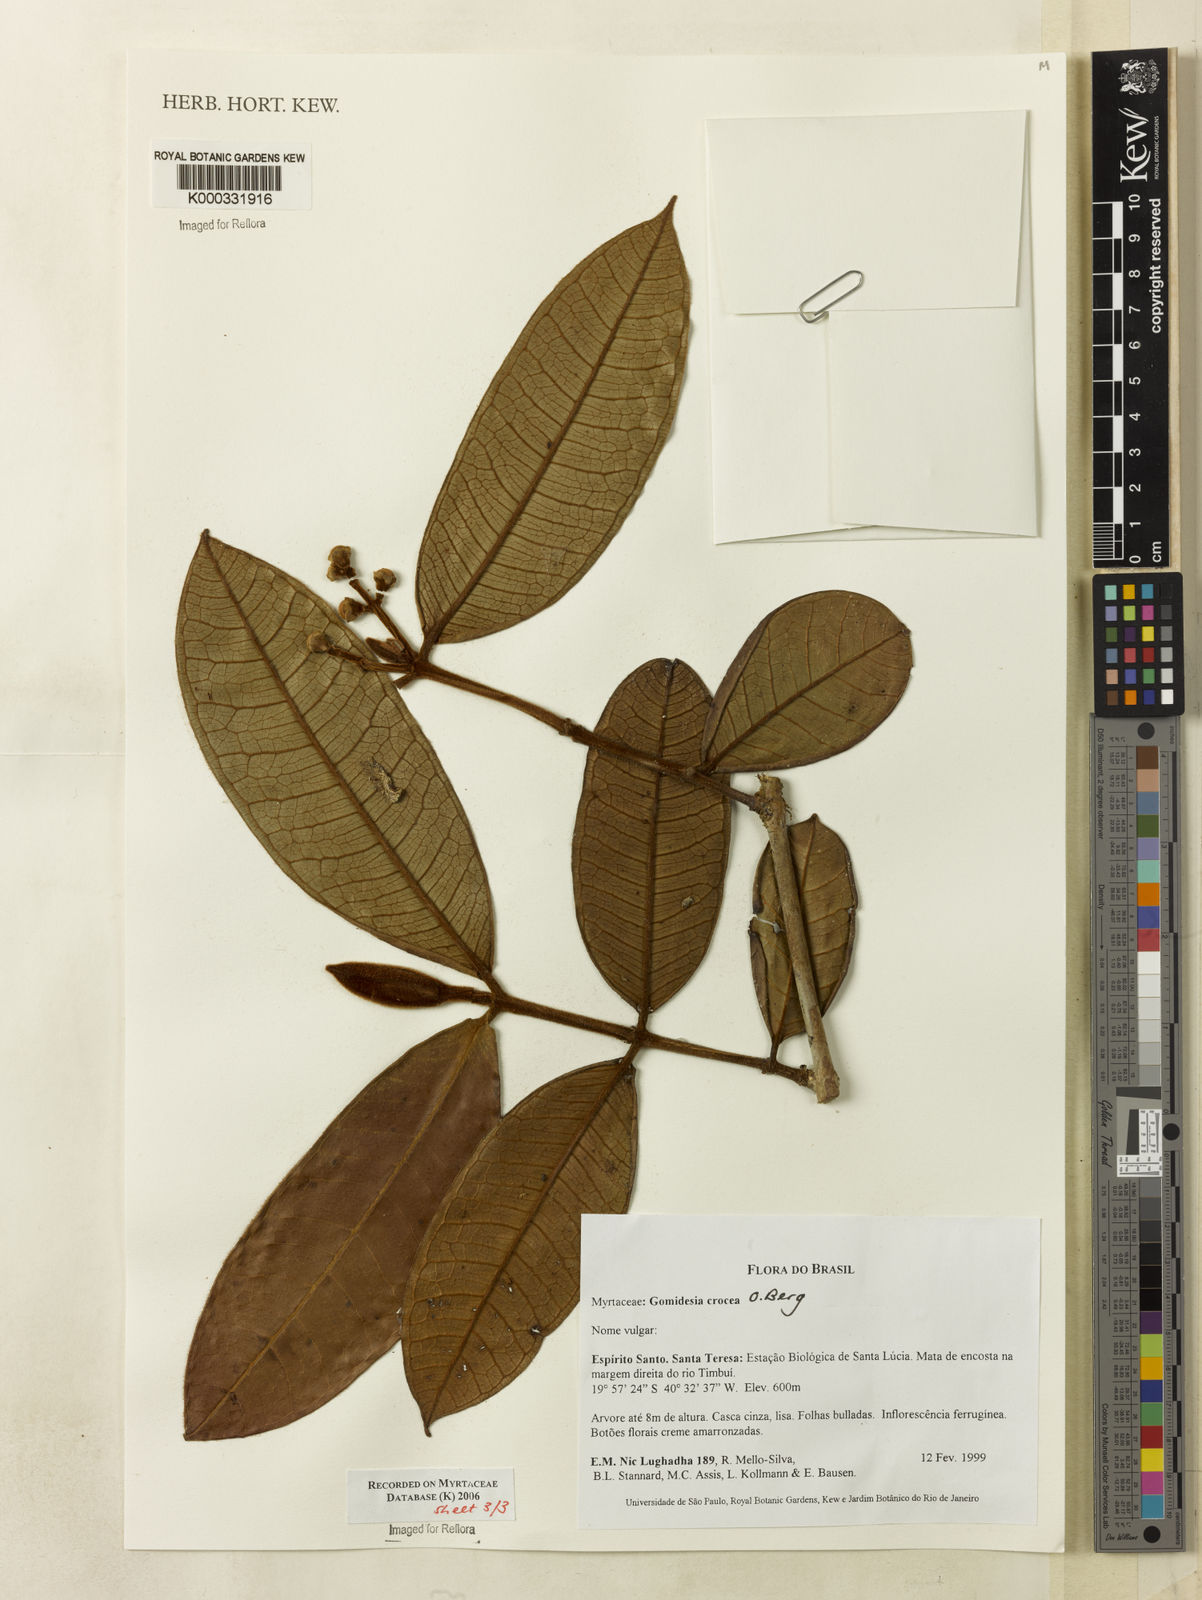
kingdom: Plantae
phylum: Tracheophyta
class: Magnoliopsida
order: Myrtales
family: Myrtaceae
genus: Myrcia
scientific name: Myrcia amplexicaulis
